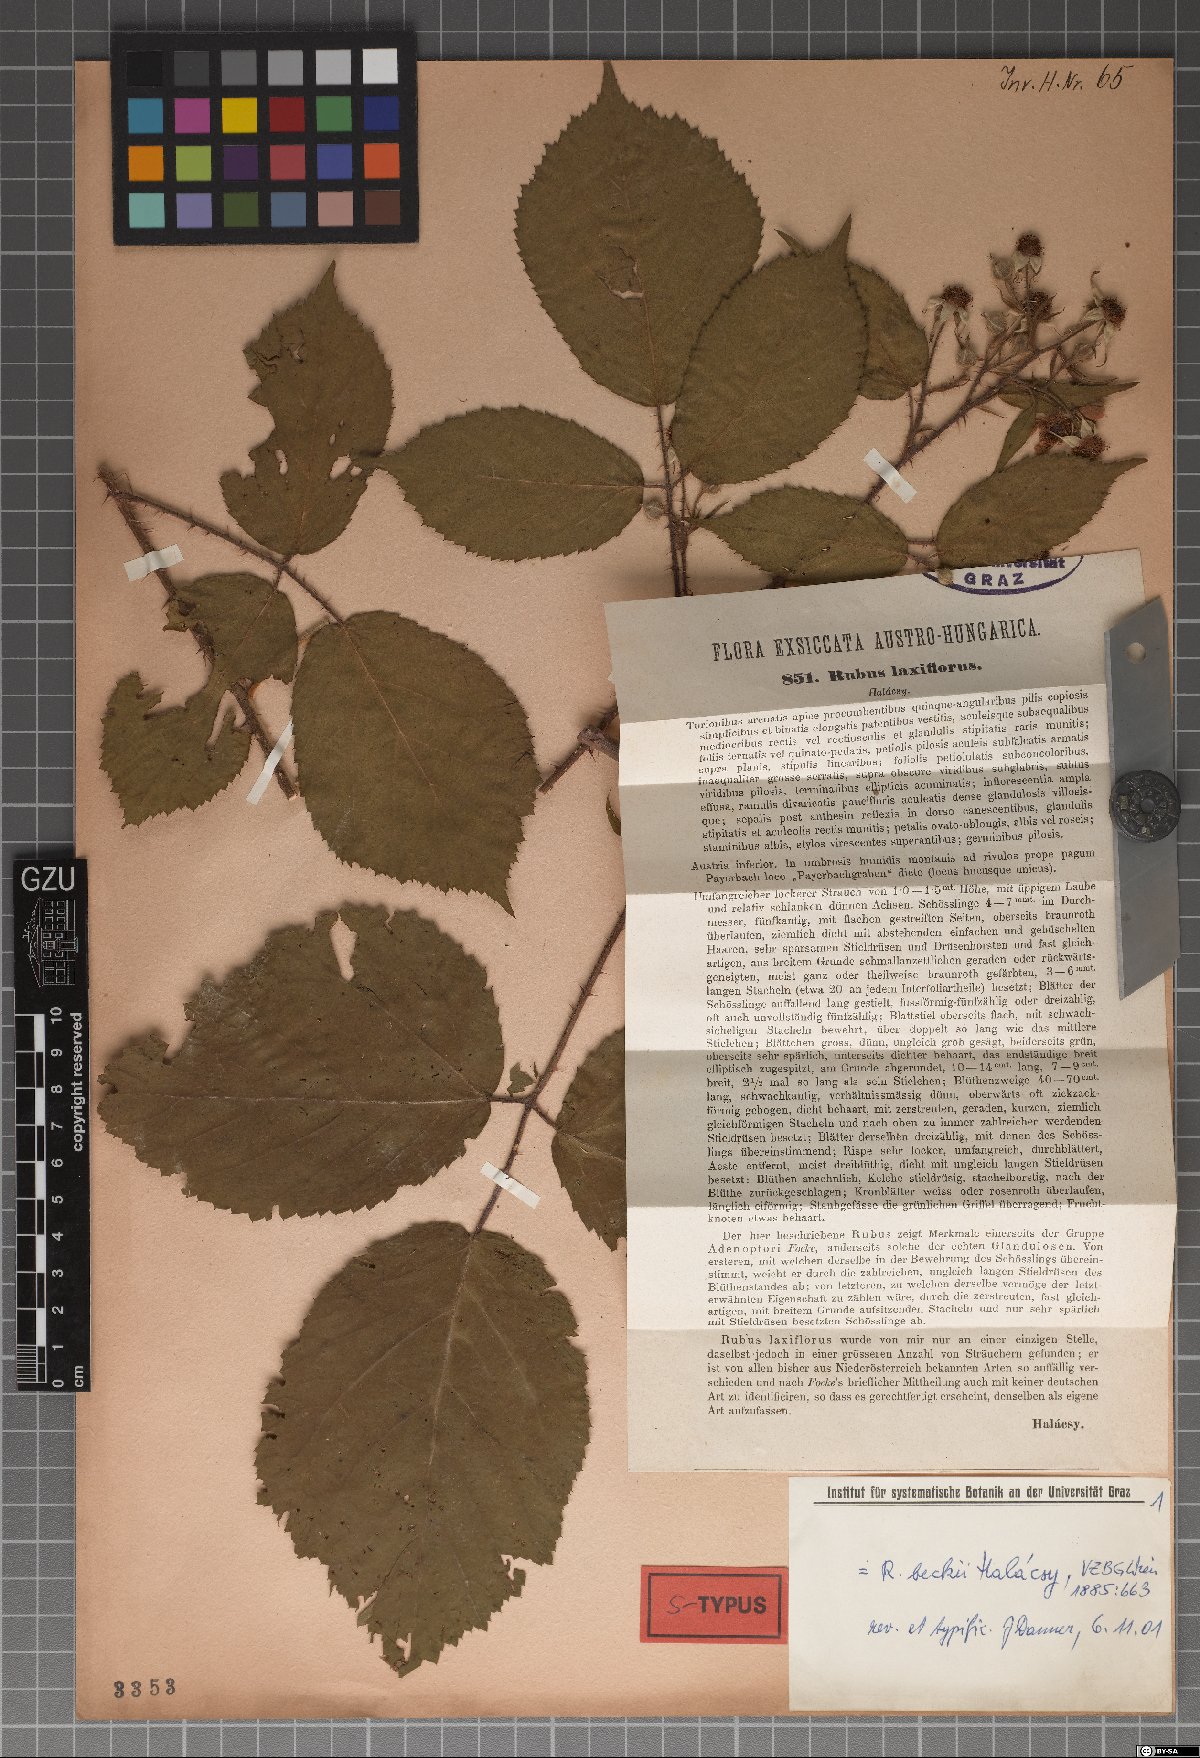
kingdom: Plantae
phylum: Tracheophyta
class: Magnoliopsida
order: Rosales
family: Rosaceae
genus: Rubus
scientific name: Rubus laxiflorus
